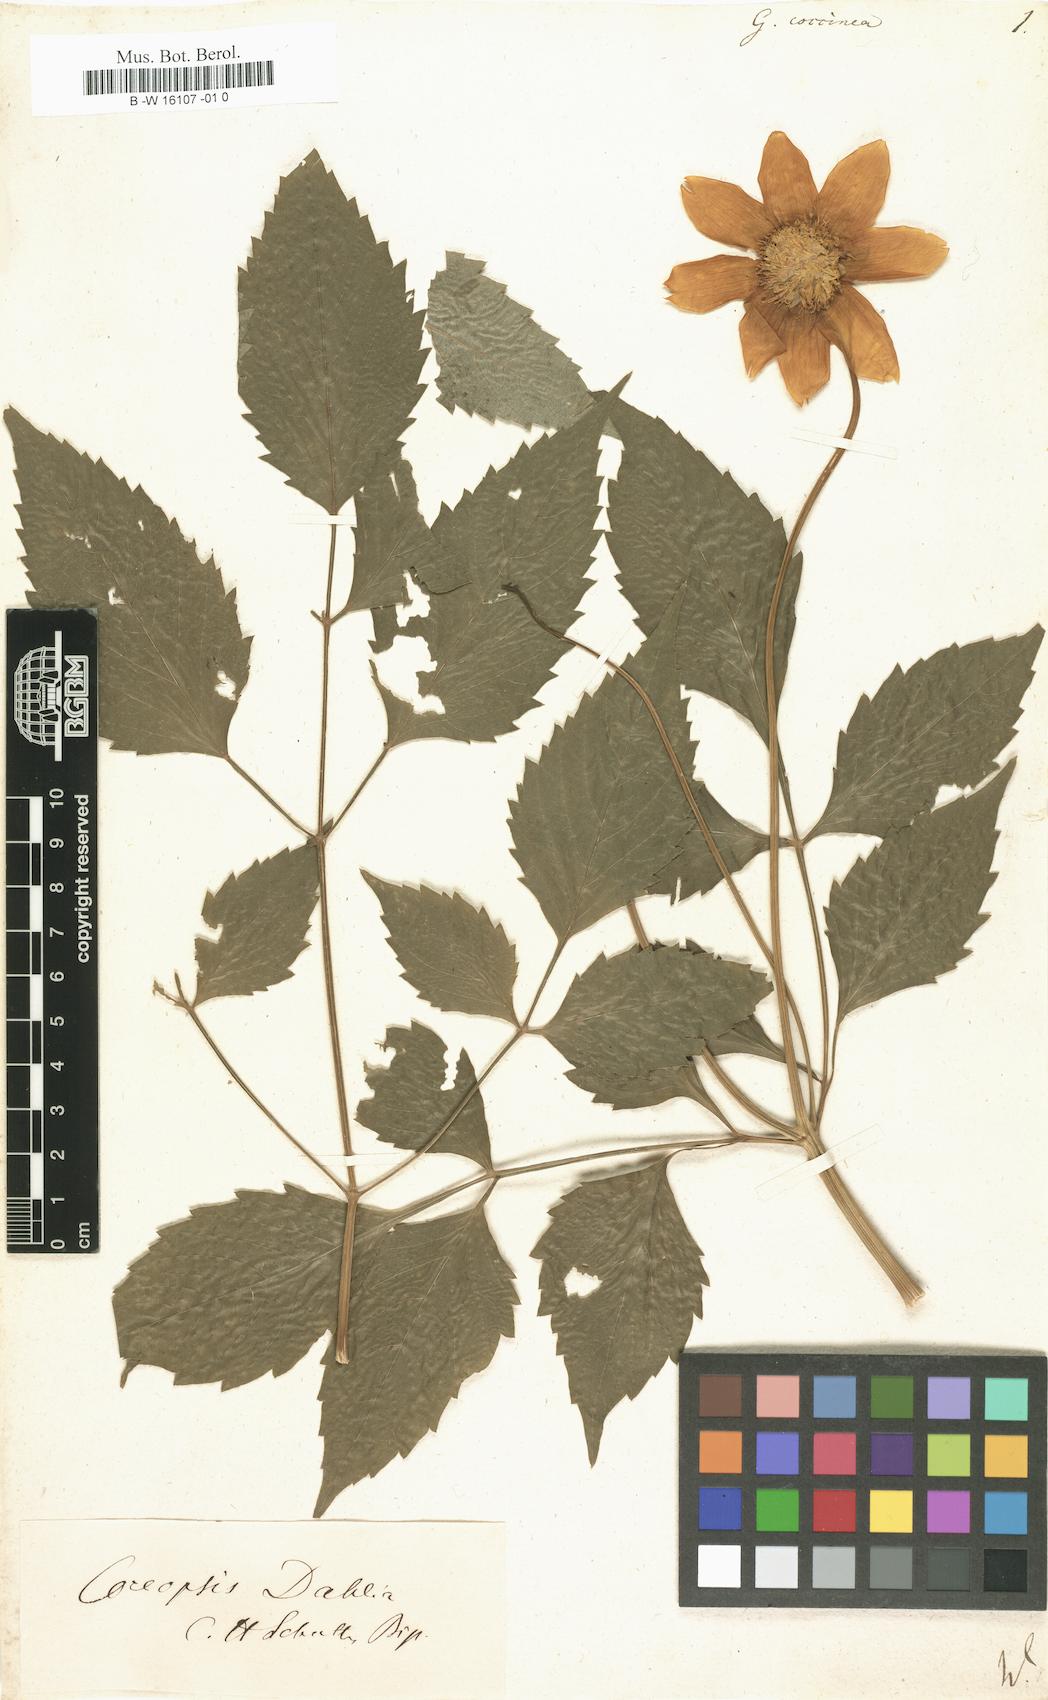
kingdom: Plantae
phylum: Tracheophyta
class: Magnoliopsida
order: Asterales
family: Asteraceae
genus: Dahlia
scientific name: Dahlia Georgina coccinea
